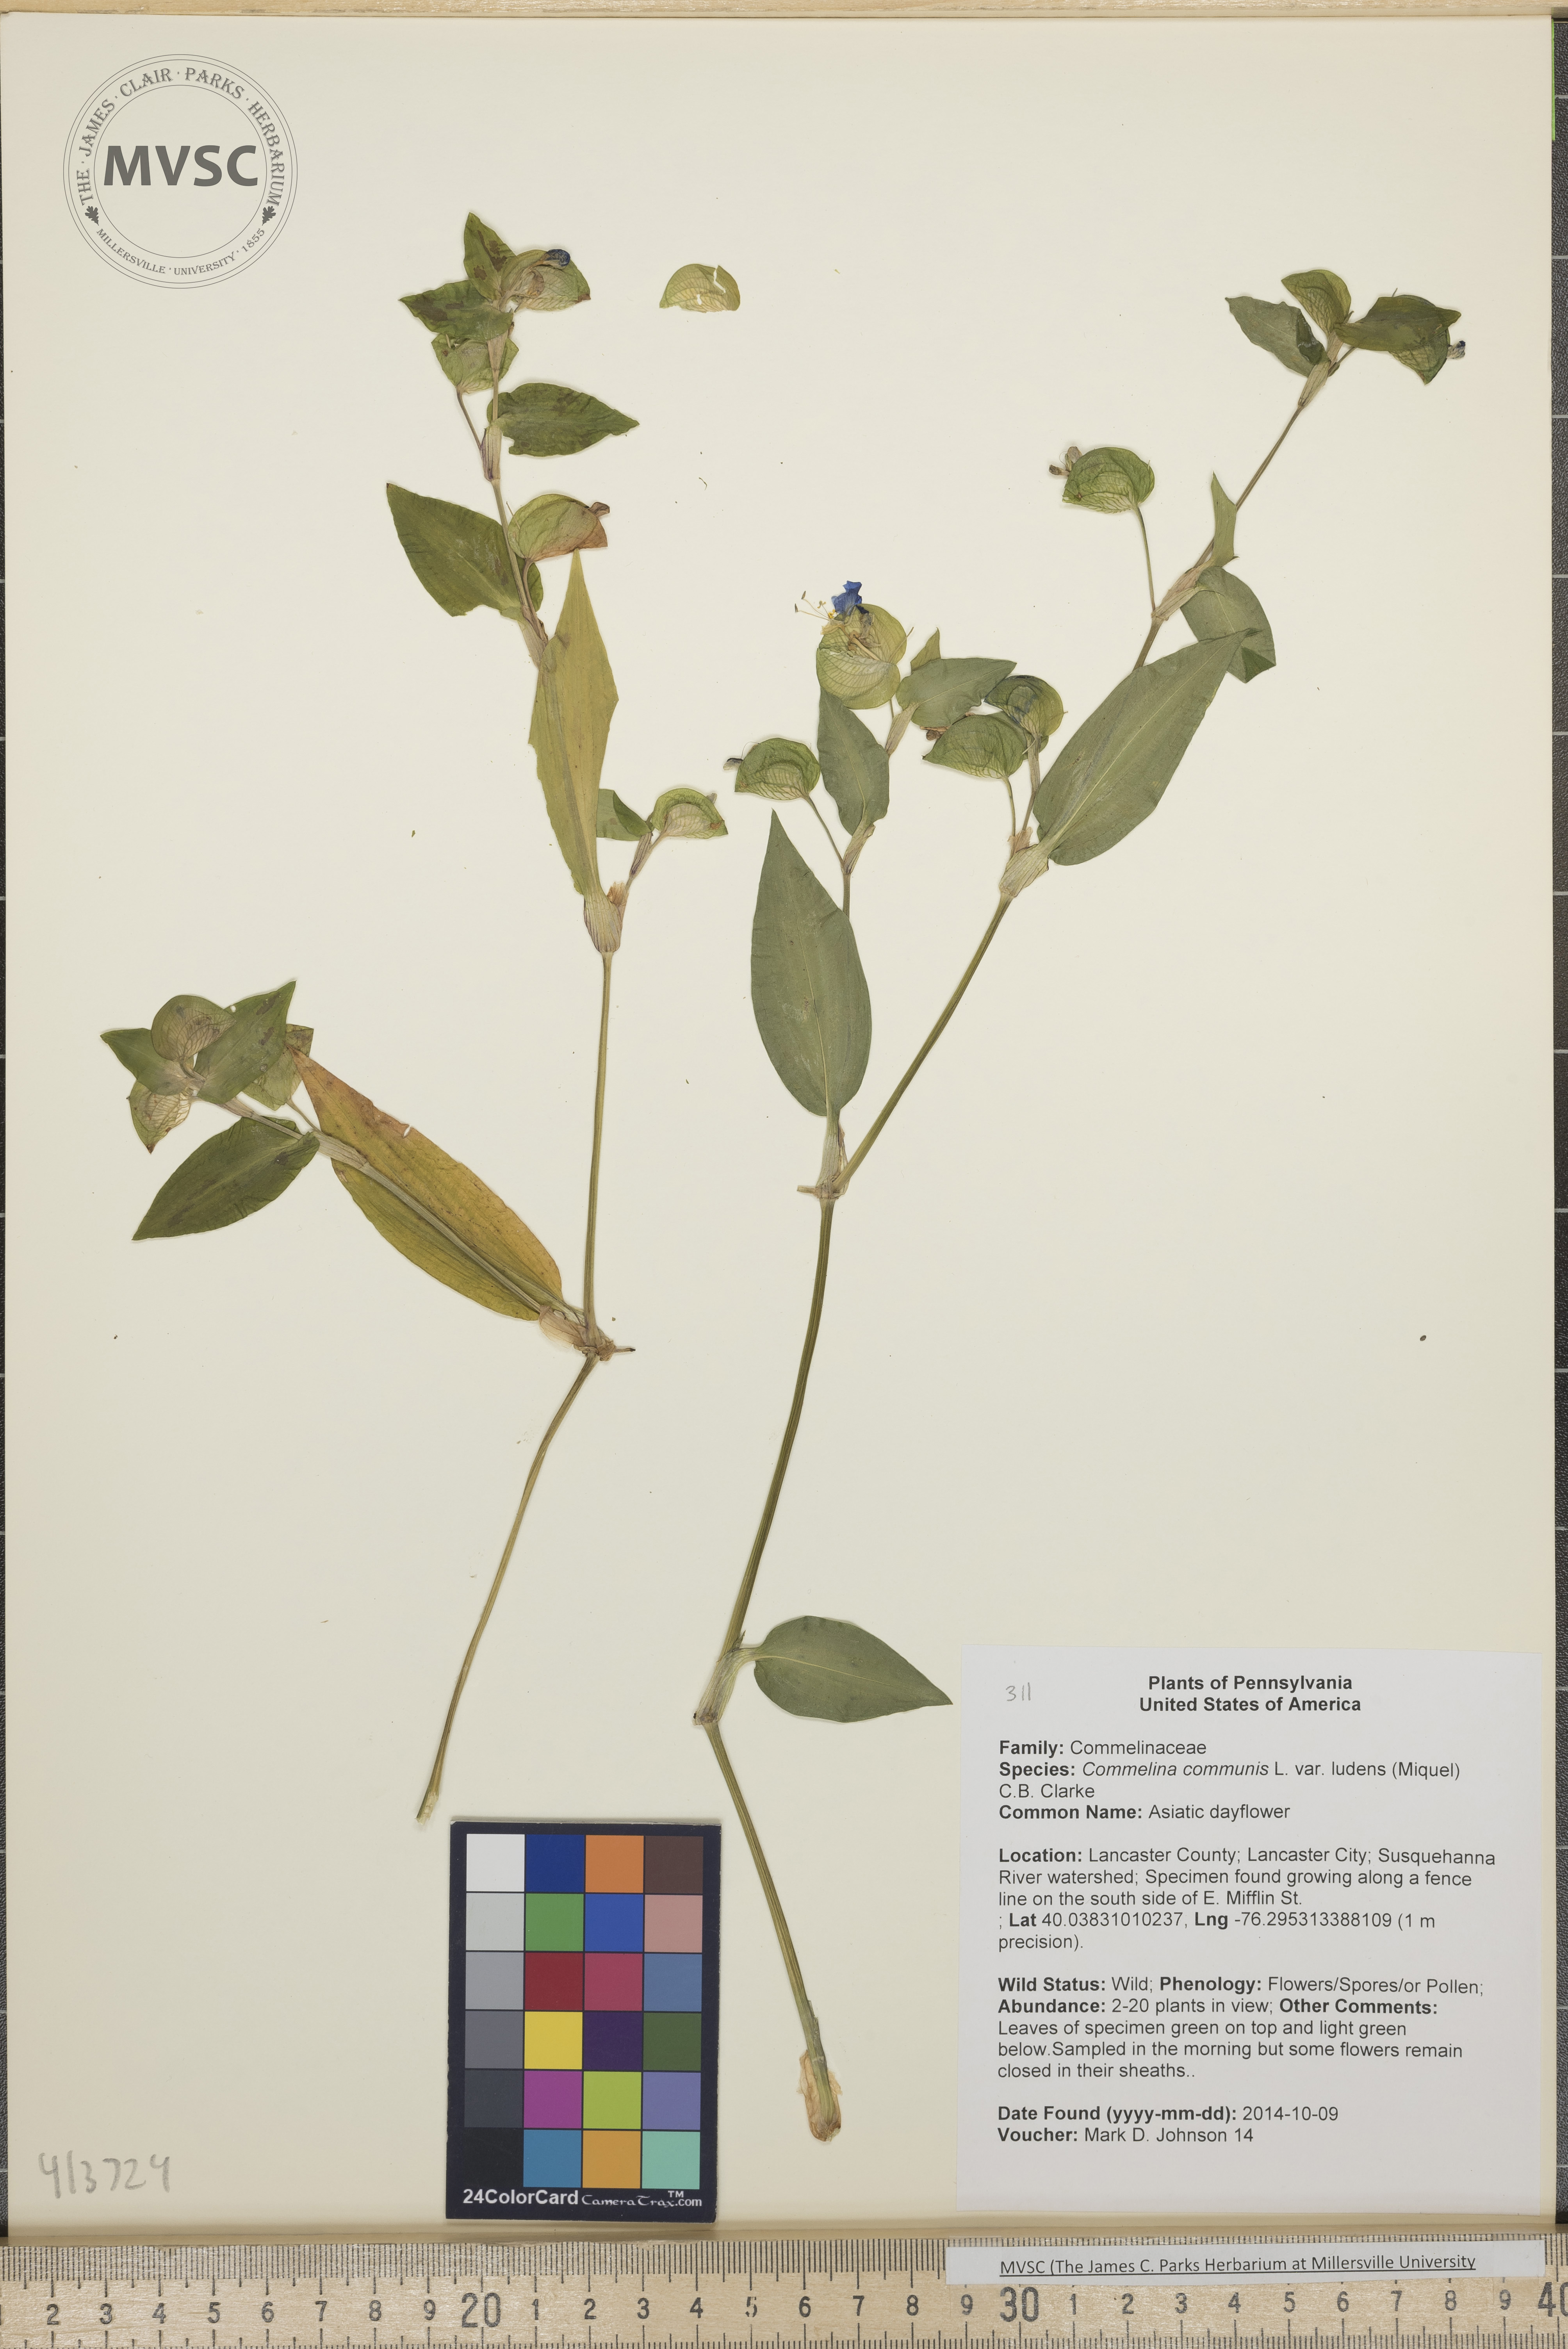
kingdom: Plantae
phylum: Tracheophyta
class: Liliopsida
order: Commelinales
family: Commelinaceae
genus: Commelina
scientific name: Commelina communis
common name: Asiatic dayflower
